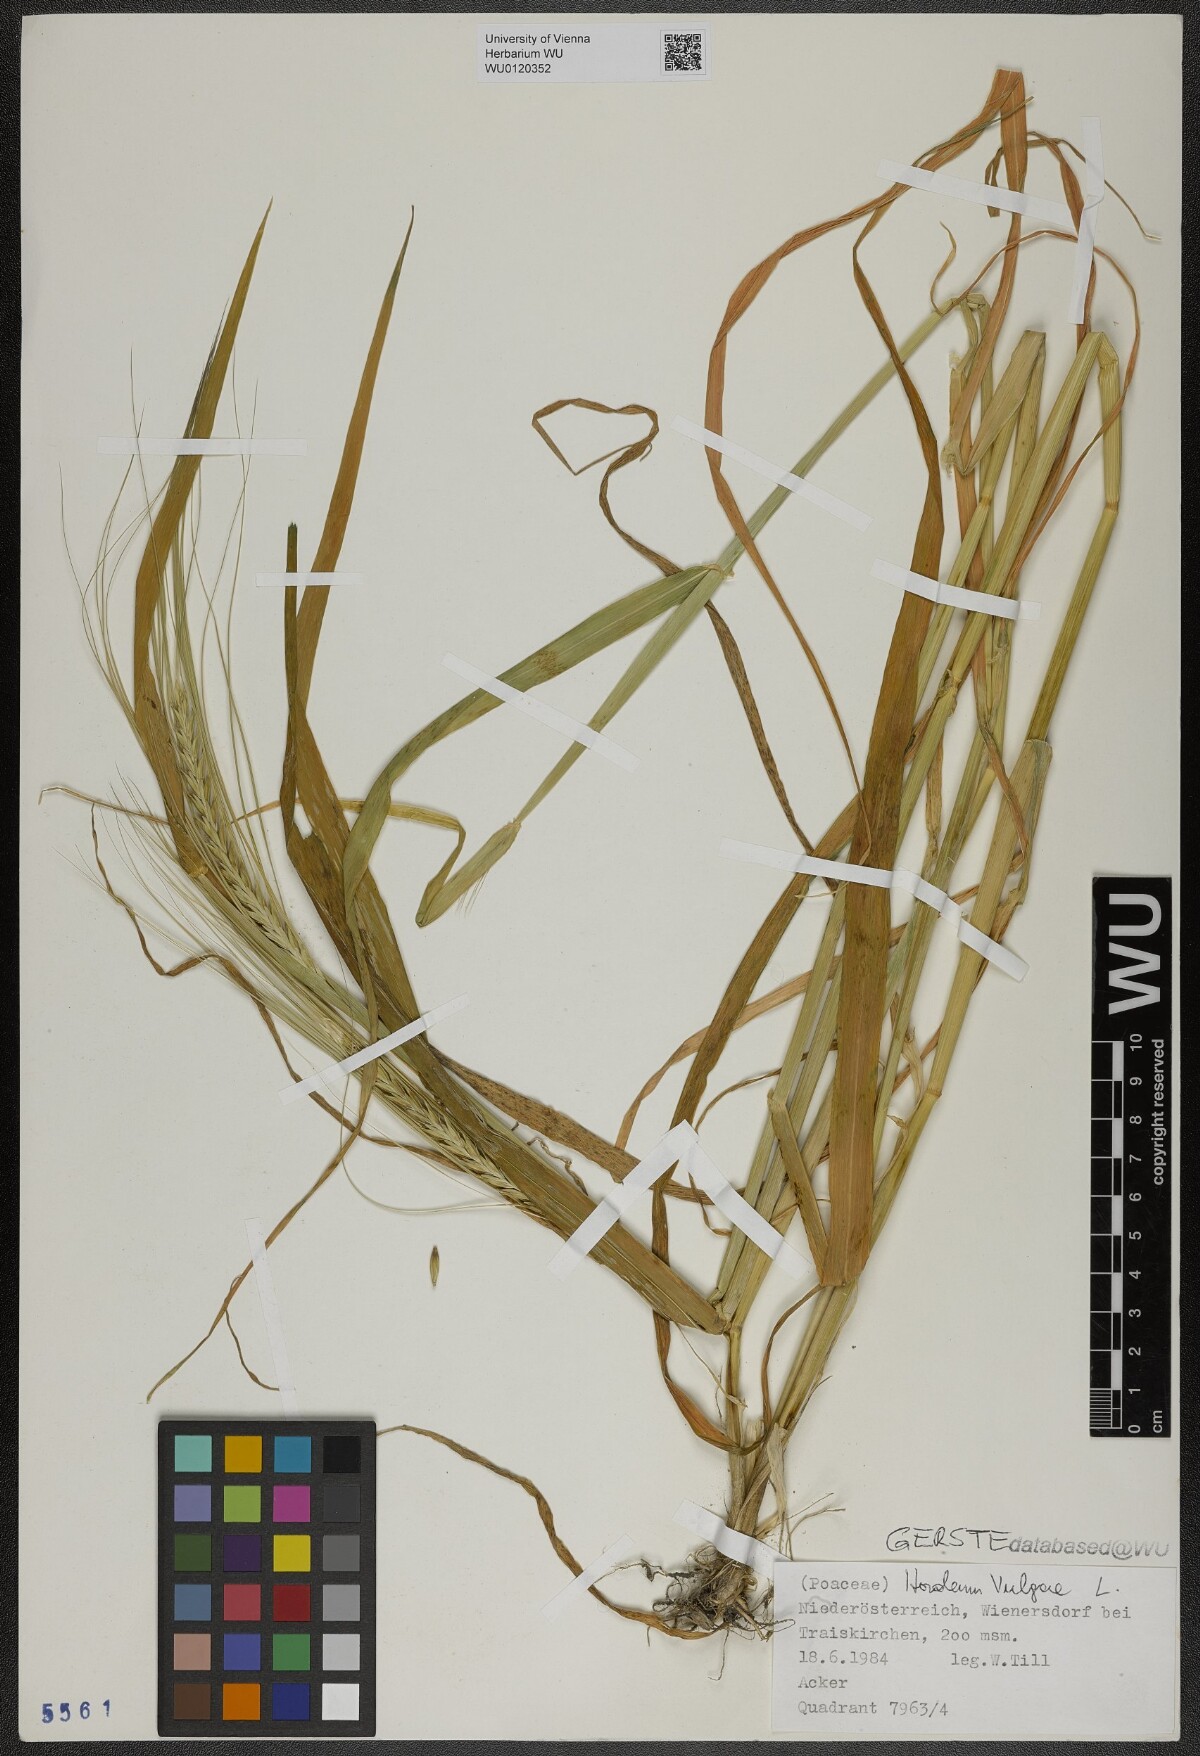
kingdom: Plantae
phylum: Tracheophyta
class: Liliopsida
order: Poales
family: Poaceae
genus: Hordeum
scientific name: Hordeum vulgare
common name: Common barley
